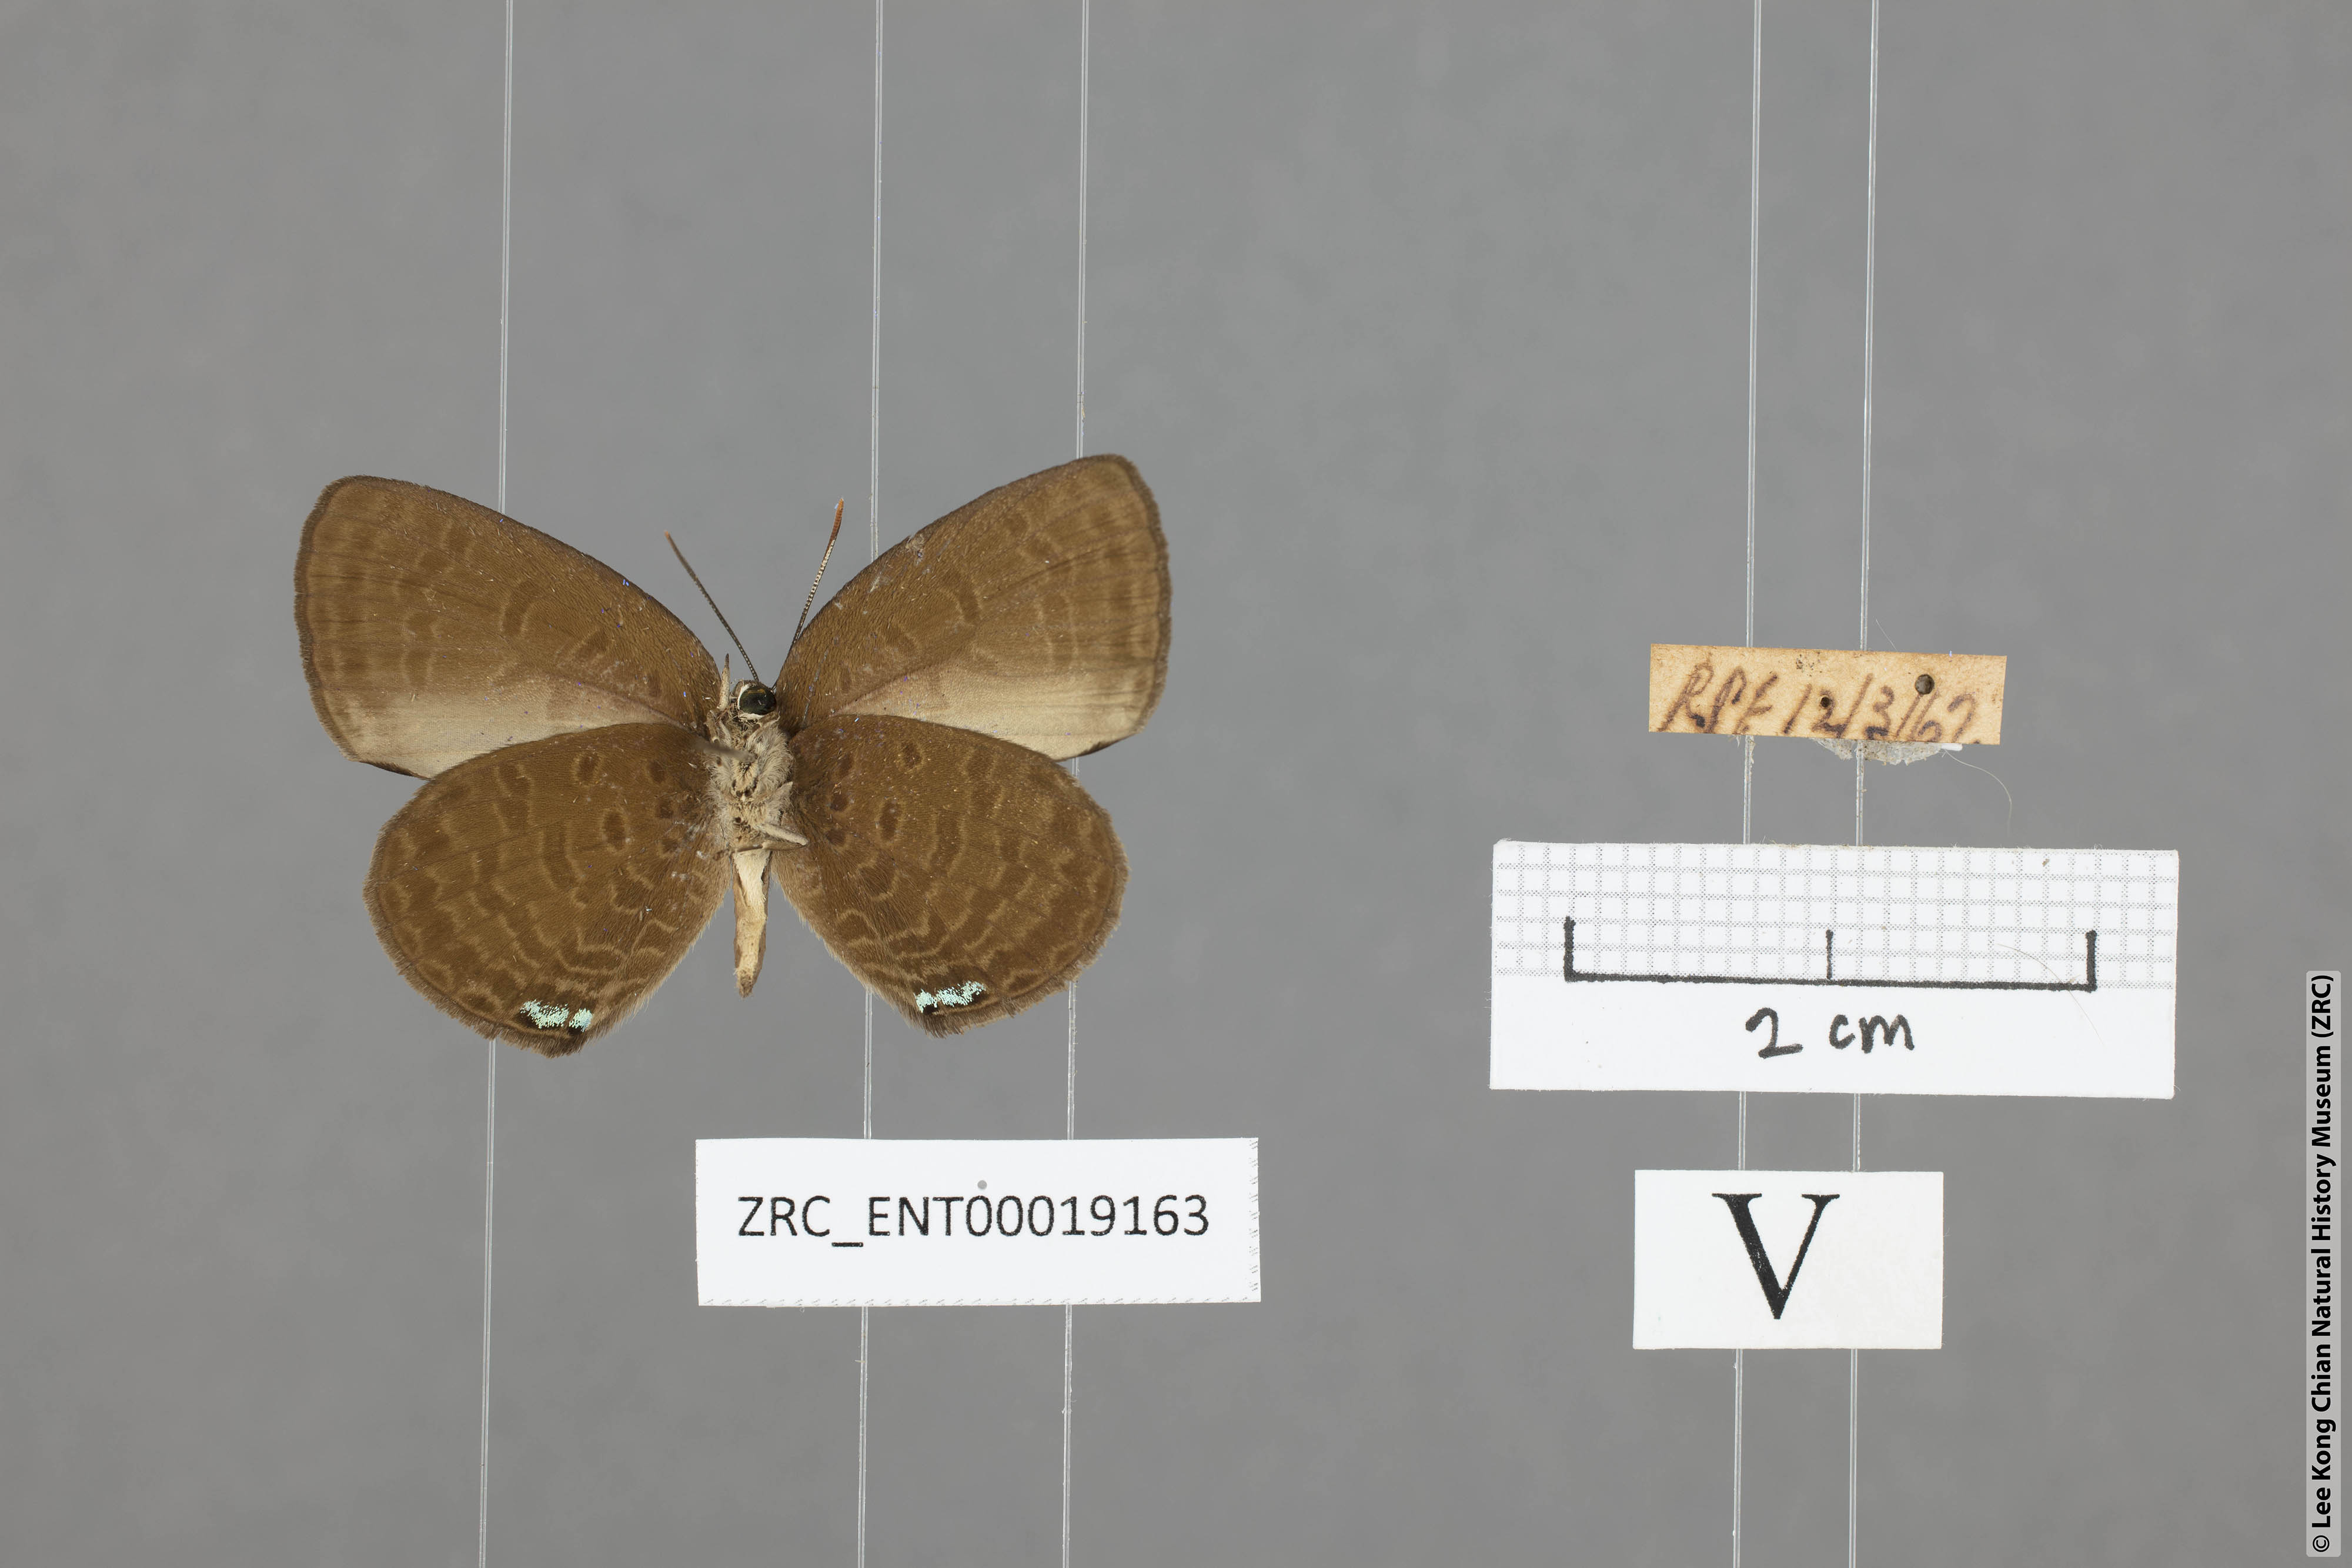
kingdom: Animalia
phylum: Arthropoda
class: Insecta
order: Lepidoptera
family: Lycaenidae
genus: Arhopala
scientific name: Arhopala antimuta
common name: Small tailless oakblue
